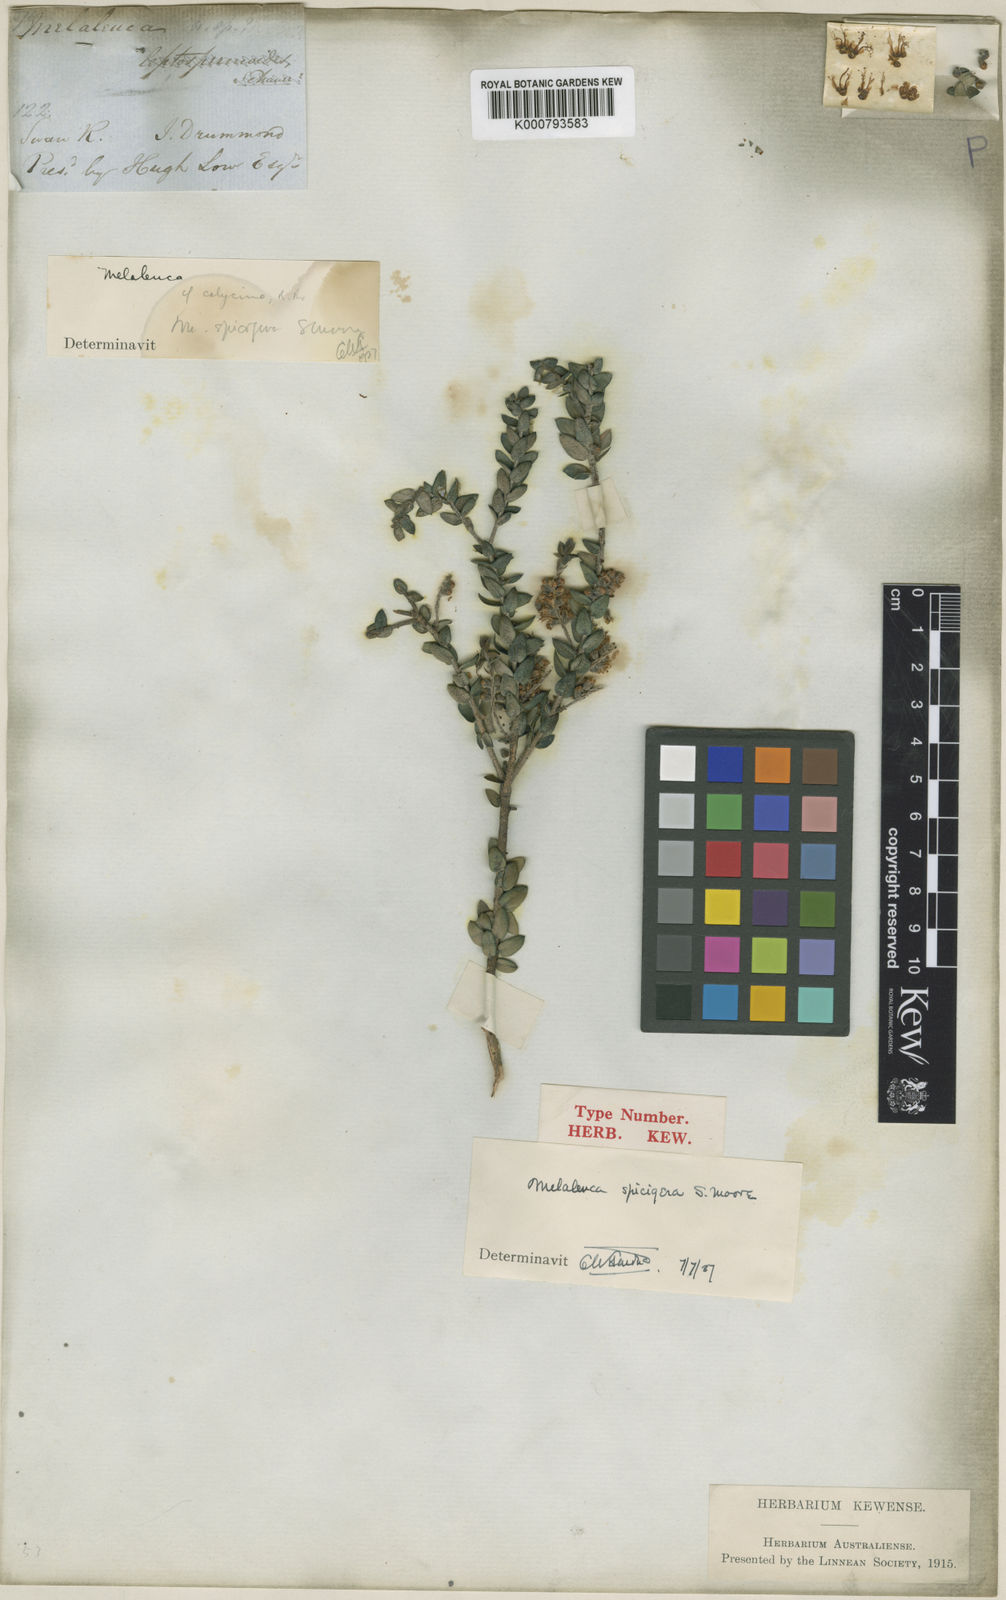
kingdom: Plantae
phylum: Tracheophyta
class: Magnoliopsida
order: Myrtales
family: Myrtaceae
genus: Melaleuca
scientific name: Melaleuca spicigera
